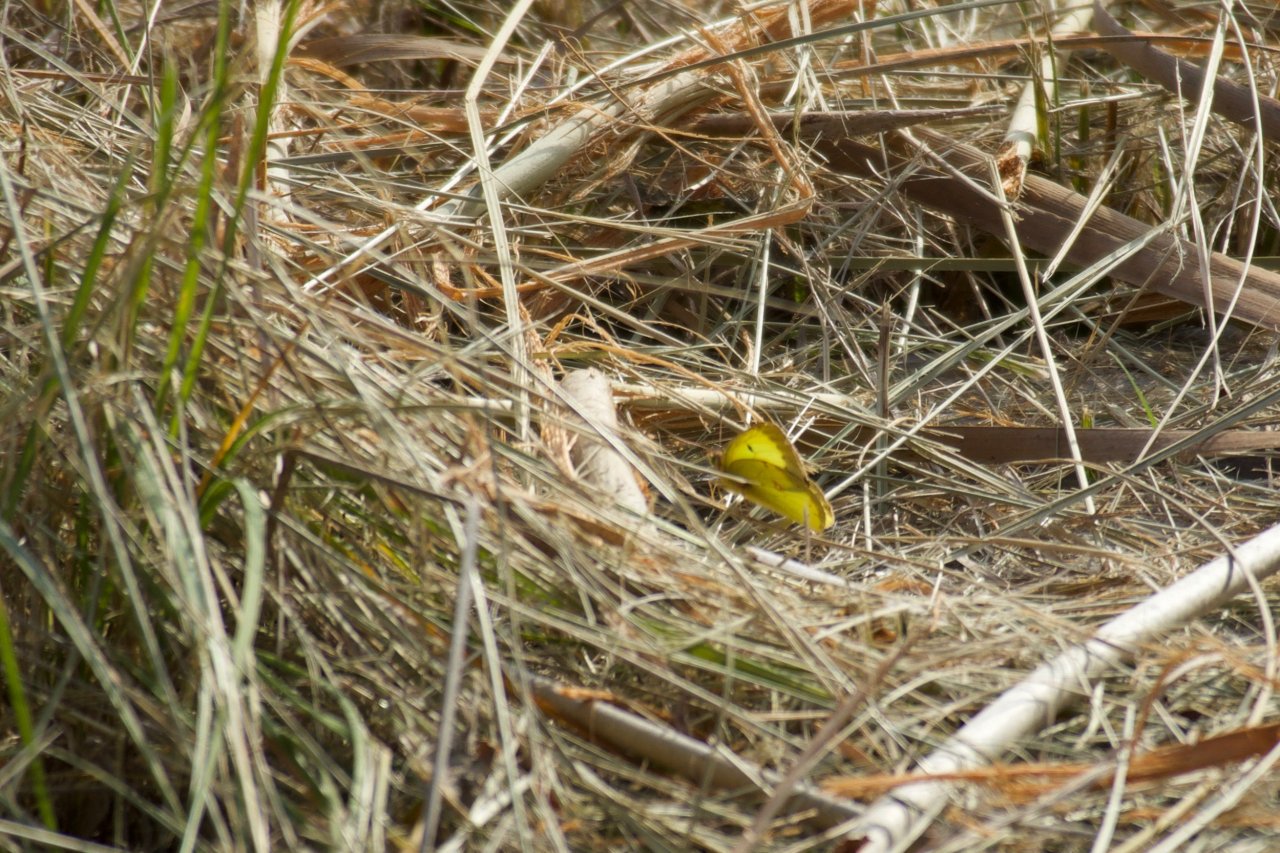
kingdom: Animalia
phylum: Arthropoda
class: Insecta
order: Lepidoptera
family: Pieridae
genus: Colias
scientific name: Colias philodice
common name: Clouded Sulphur
